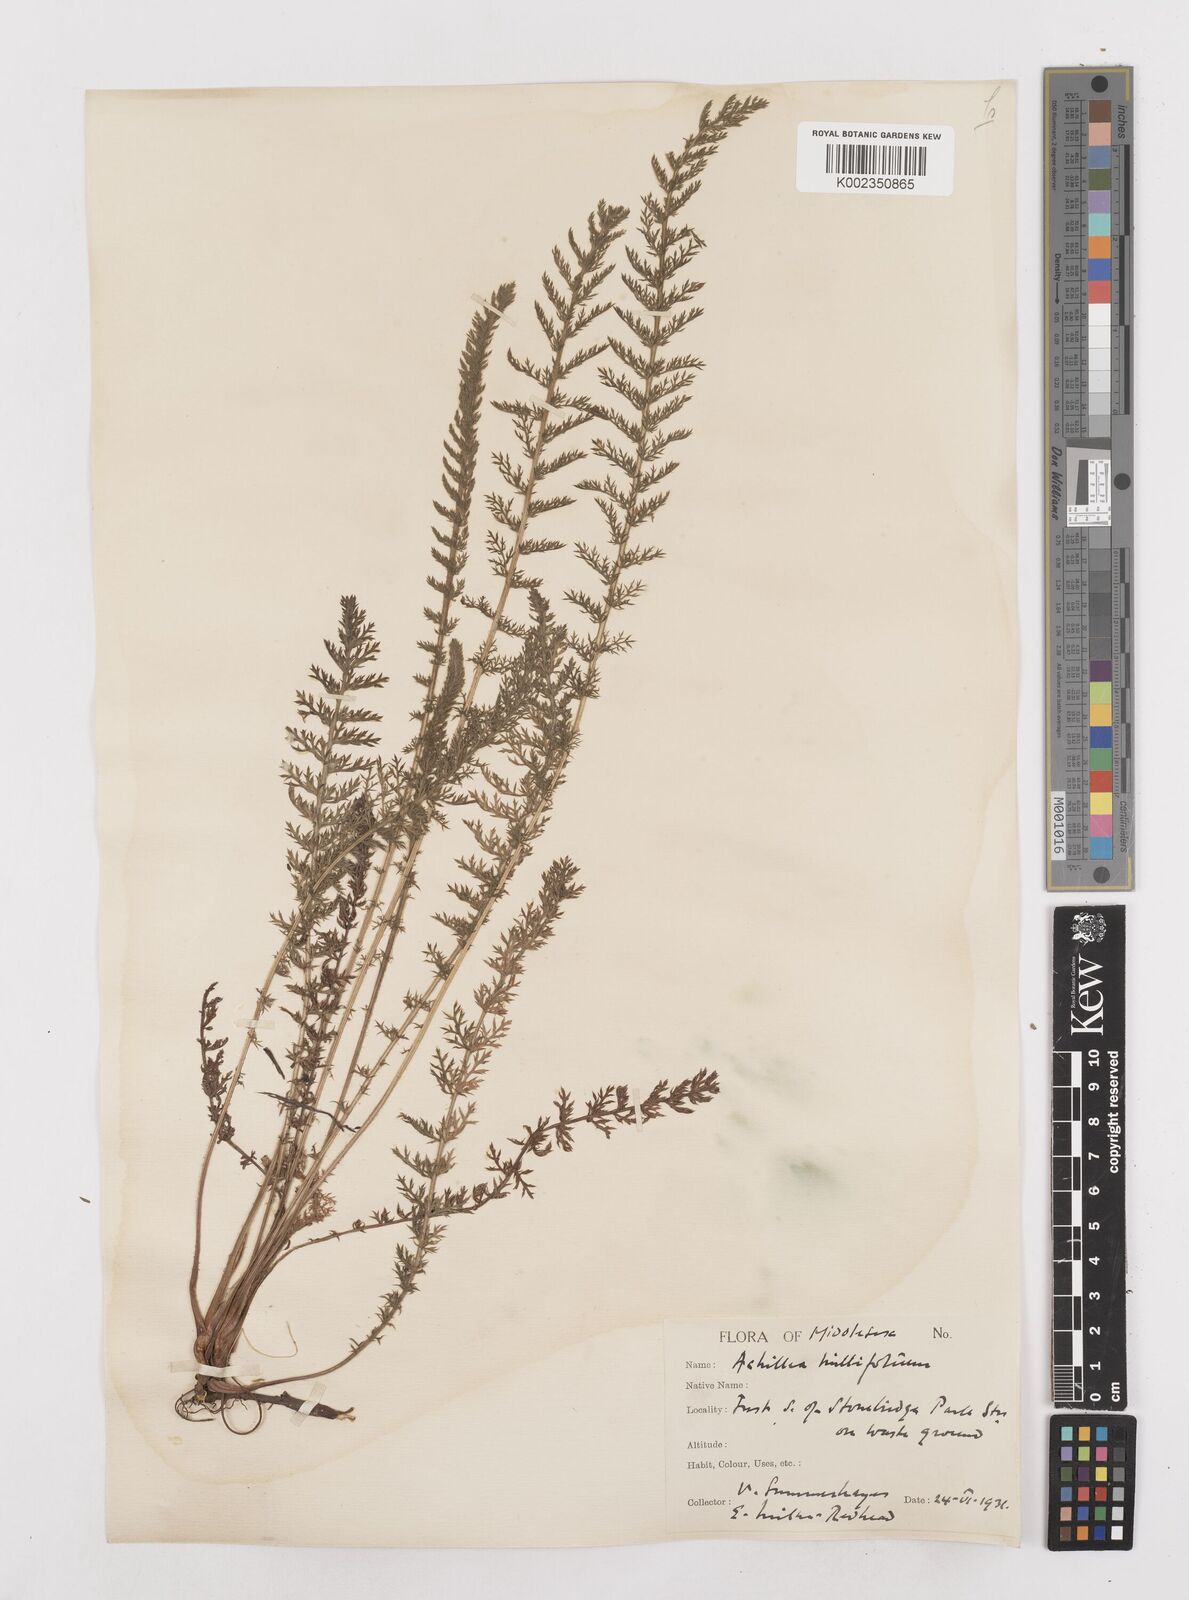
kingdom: Plantae
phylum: Tracheophyta
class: Magnoliopsida
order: Asterales
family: Asteraceae
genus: Achillea
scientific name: Achillea millefolium
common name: Yarrow
